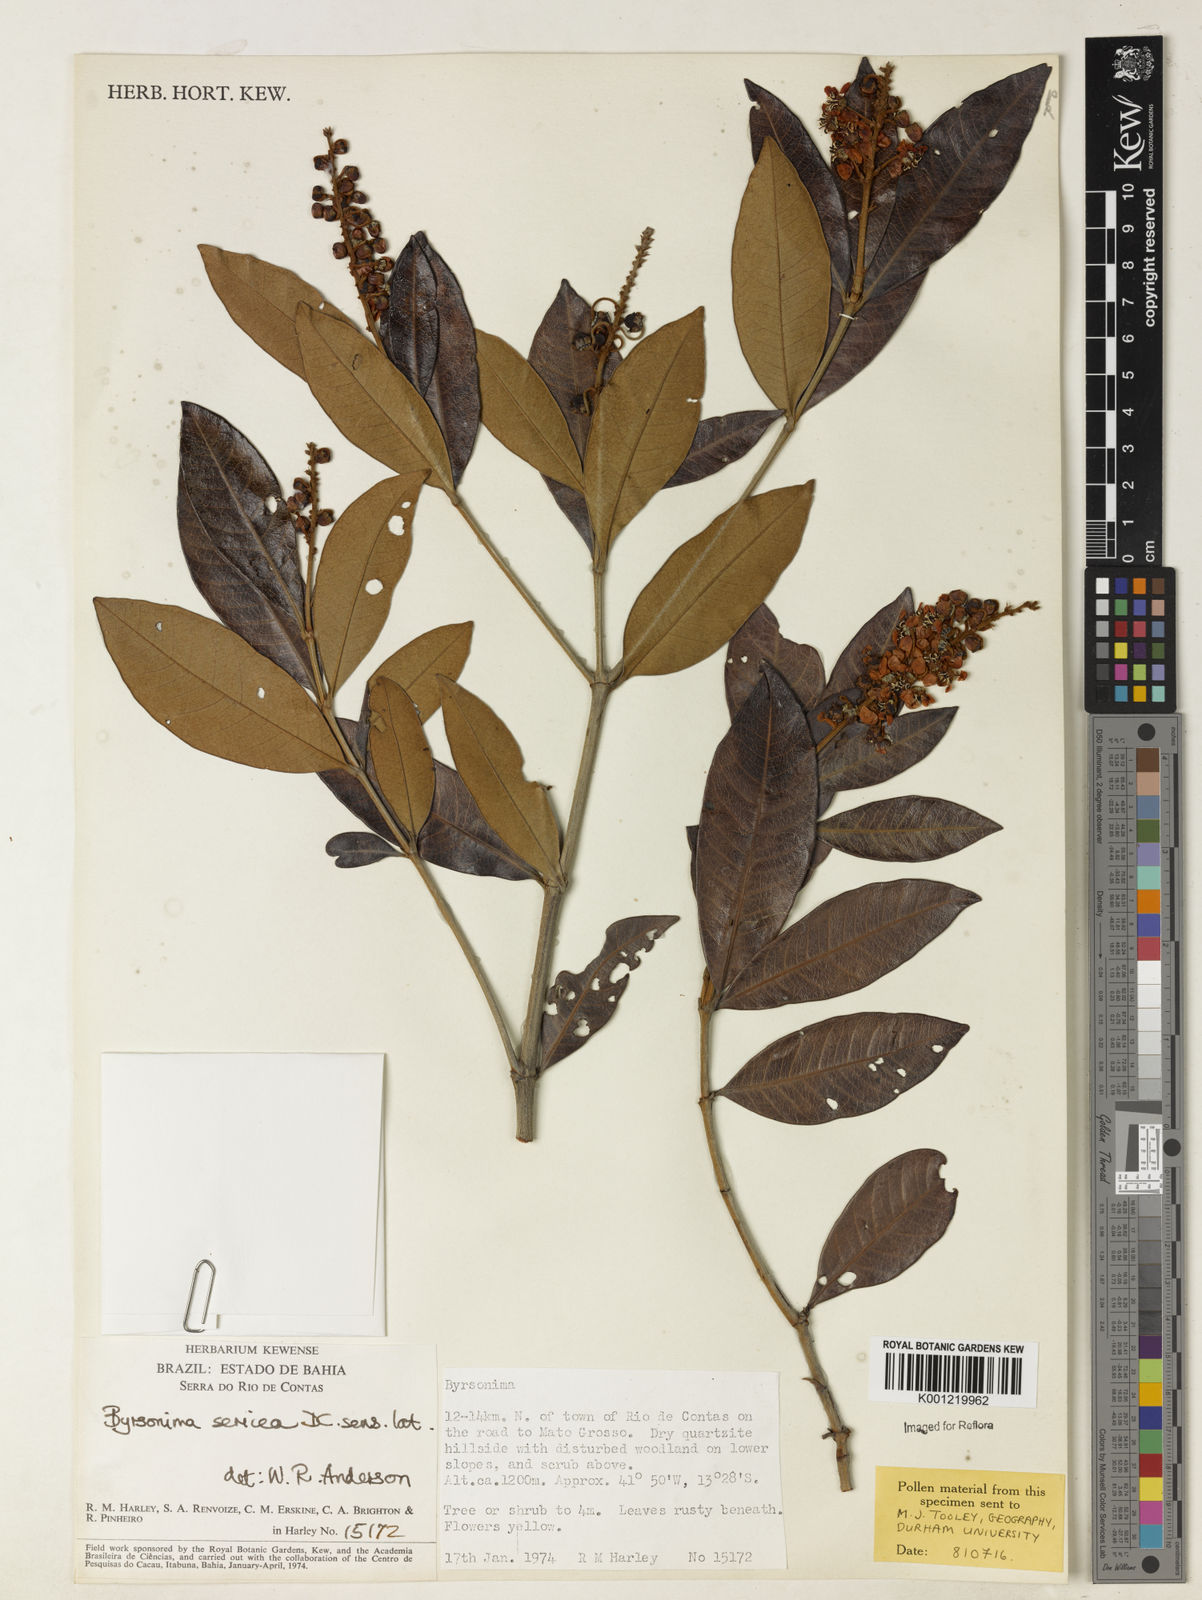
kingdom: Plantae
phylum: Tracheophyta
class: Magnoliopsida
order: Malpighiales
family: Malpighiaceae
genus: Byrsonima
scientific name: Byrsonima sericea
